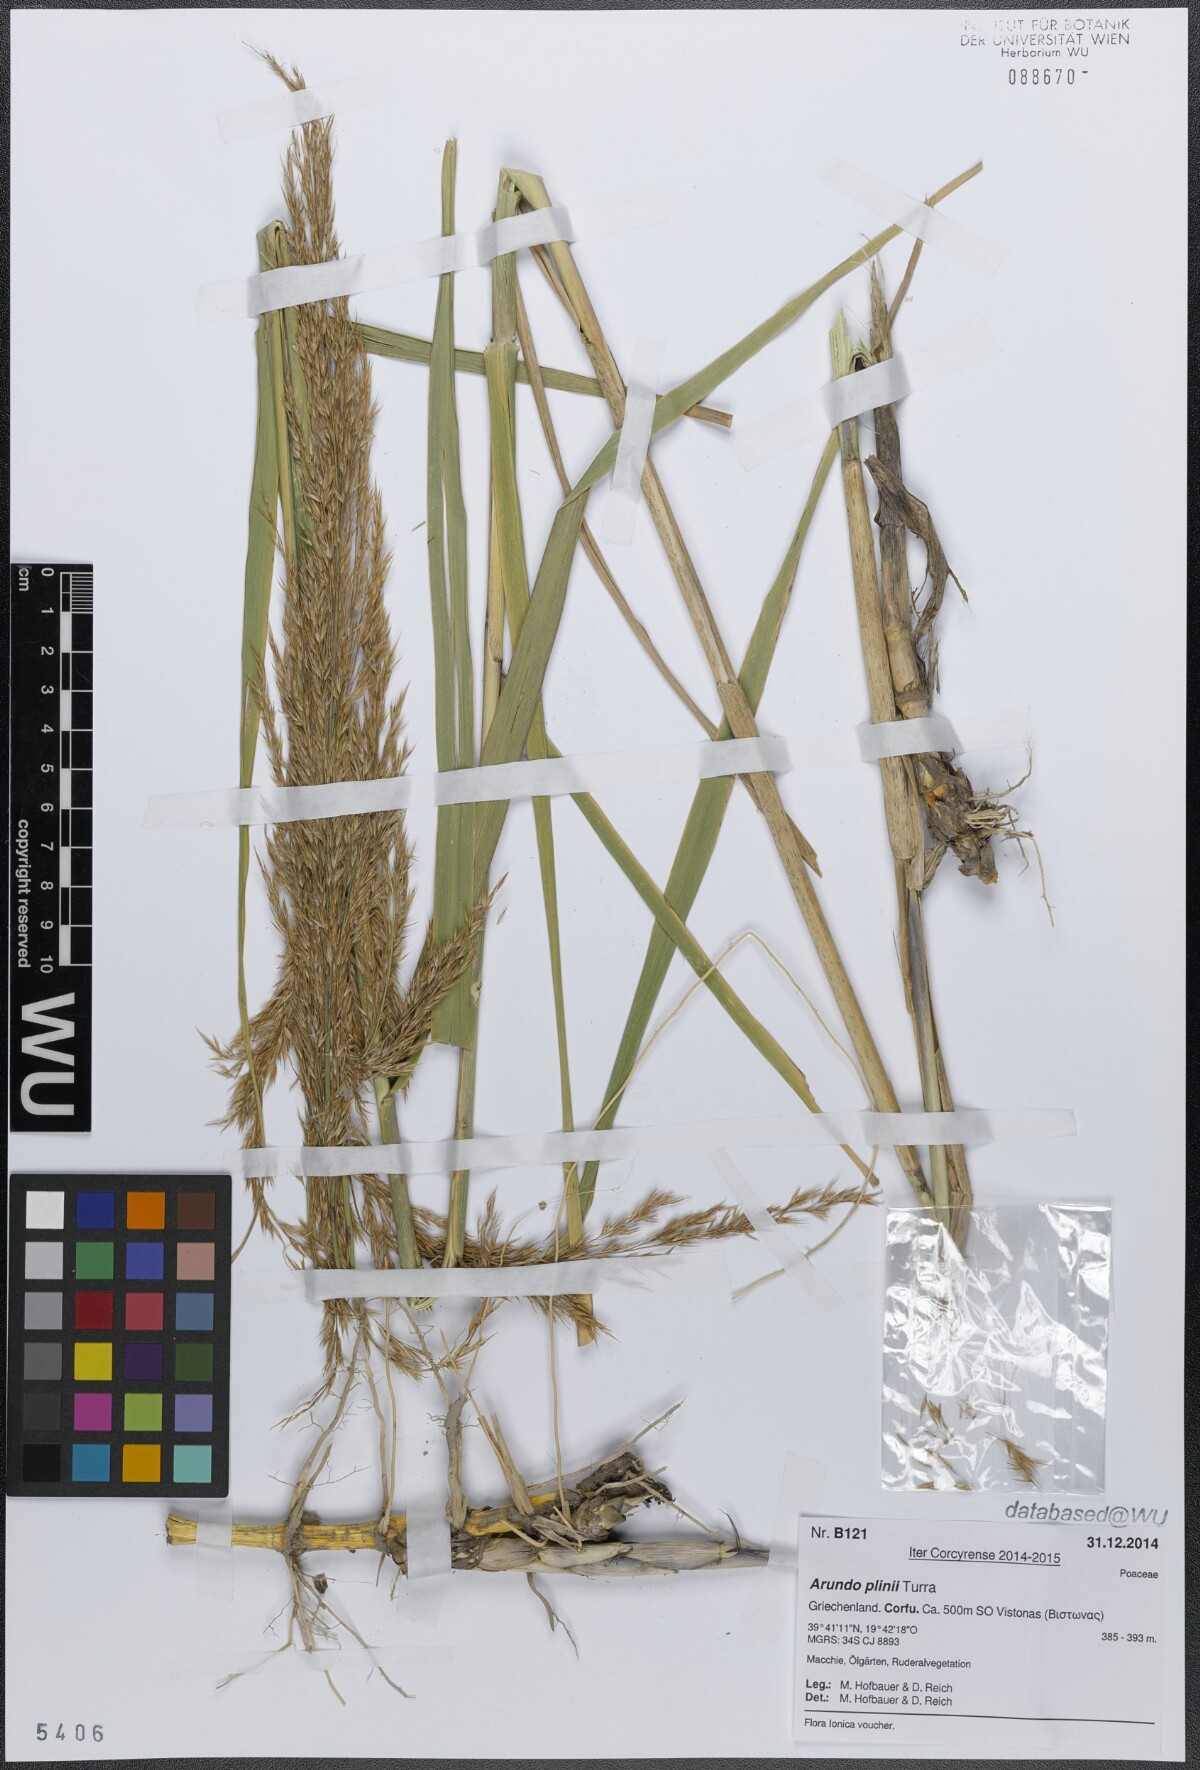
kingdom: Plantae
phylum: Tracheophyta
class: Liliopsida
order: Poales
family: Poaceae
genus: Arundo
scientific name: Arundo plinii
